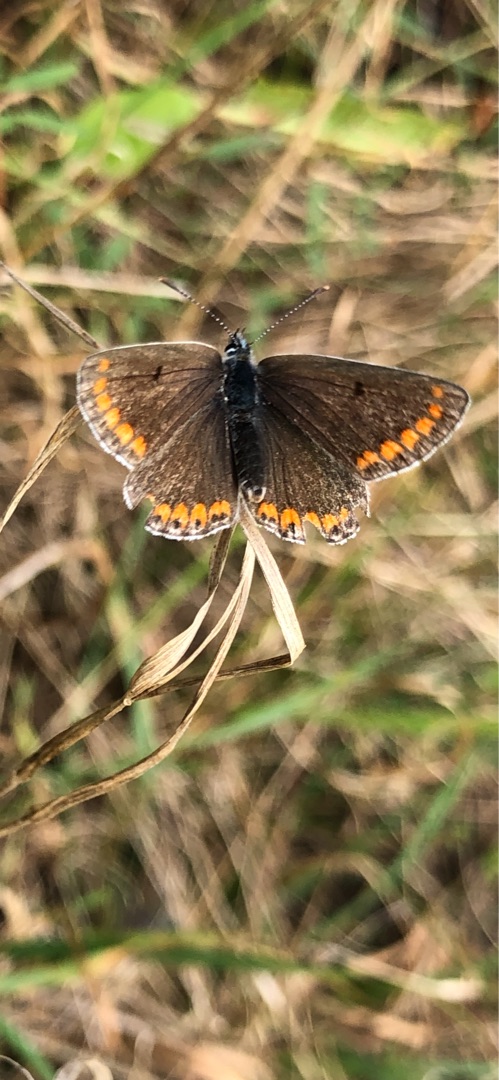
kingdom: Animalia
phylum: Arthropoda
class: Insecta
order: Lepidoptera
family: Lycaenidae
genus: Aricia
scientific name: Aricia agestis
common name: Rødplettet blåfugl
